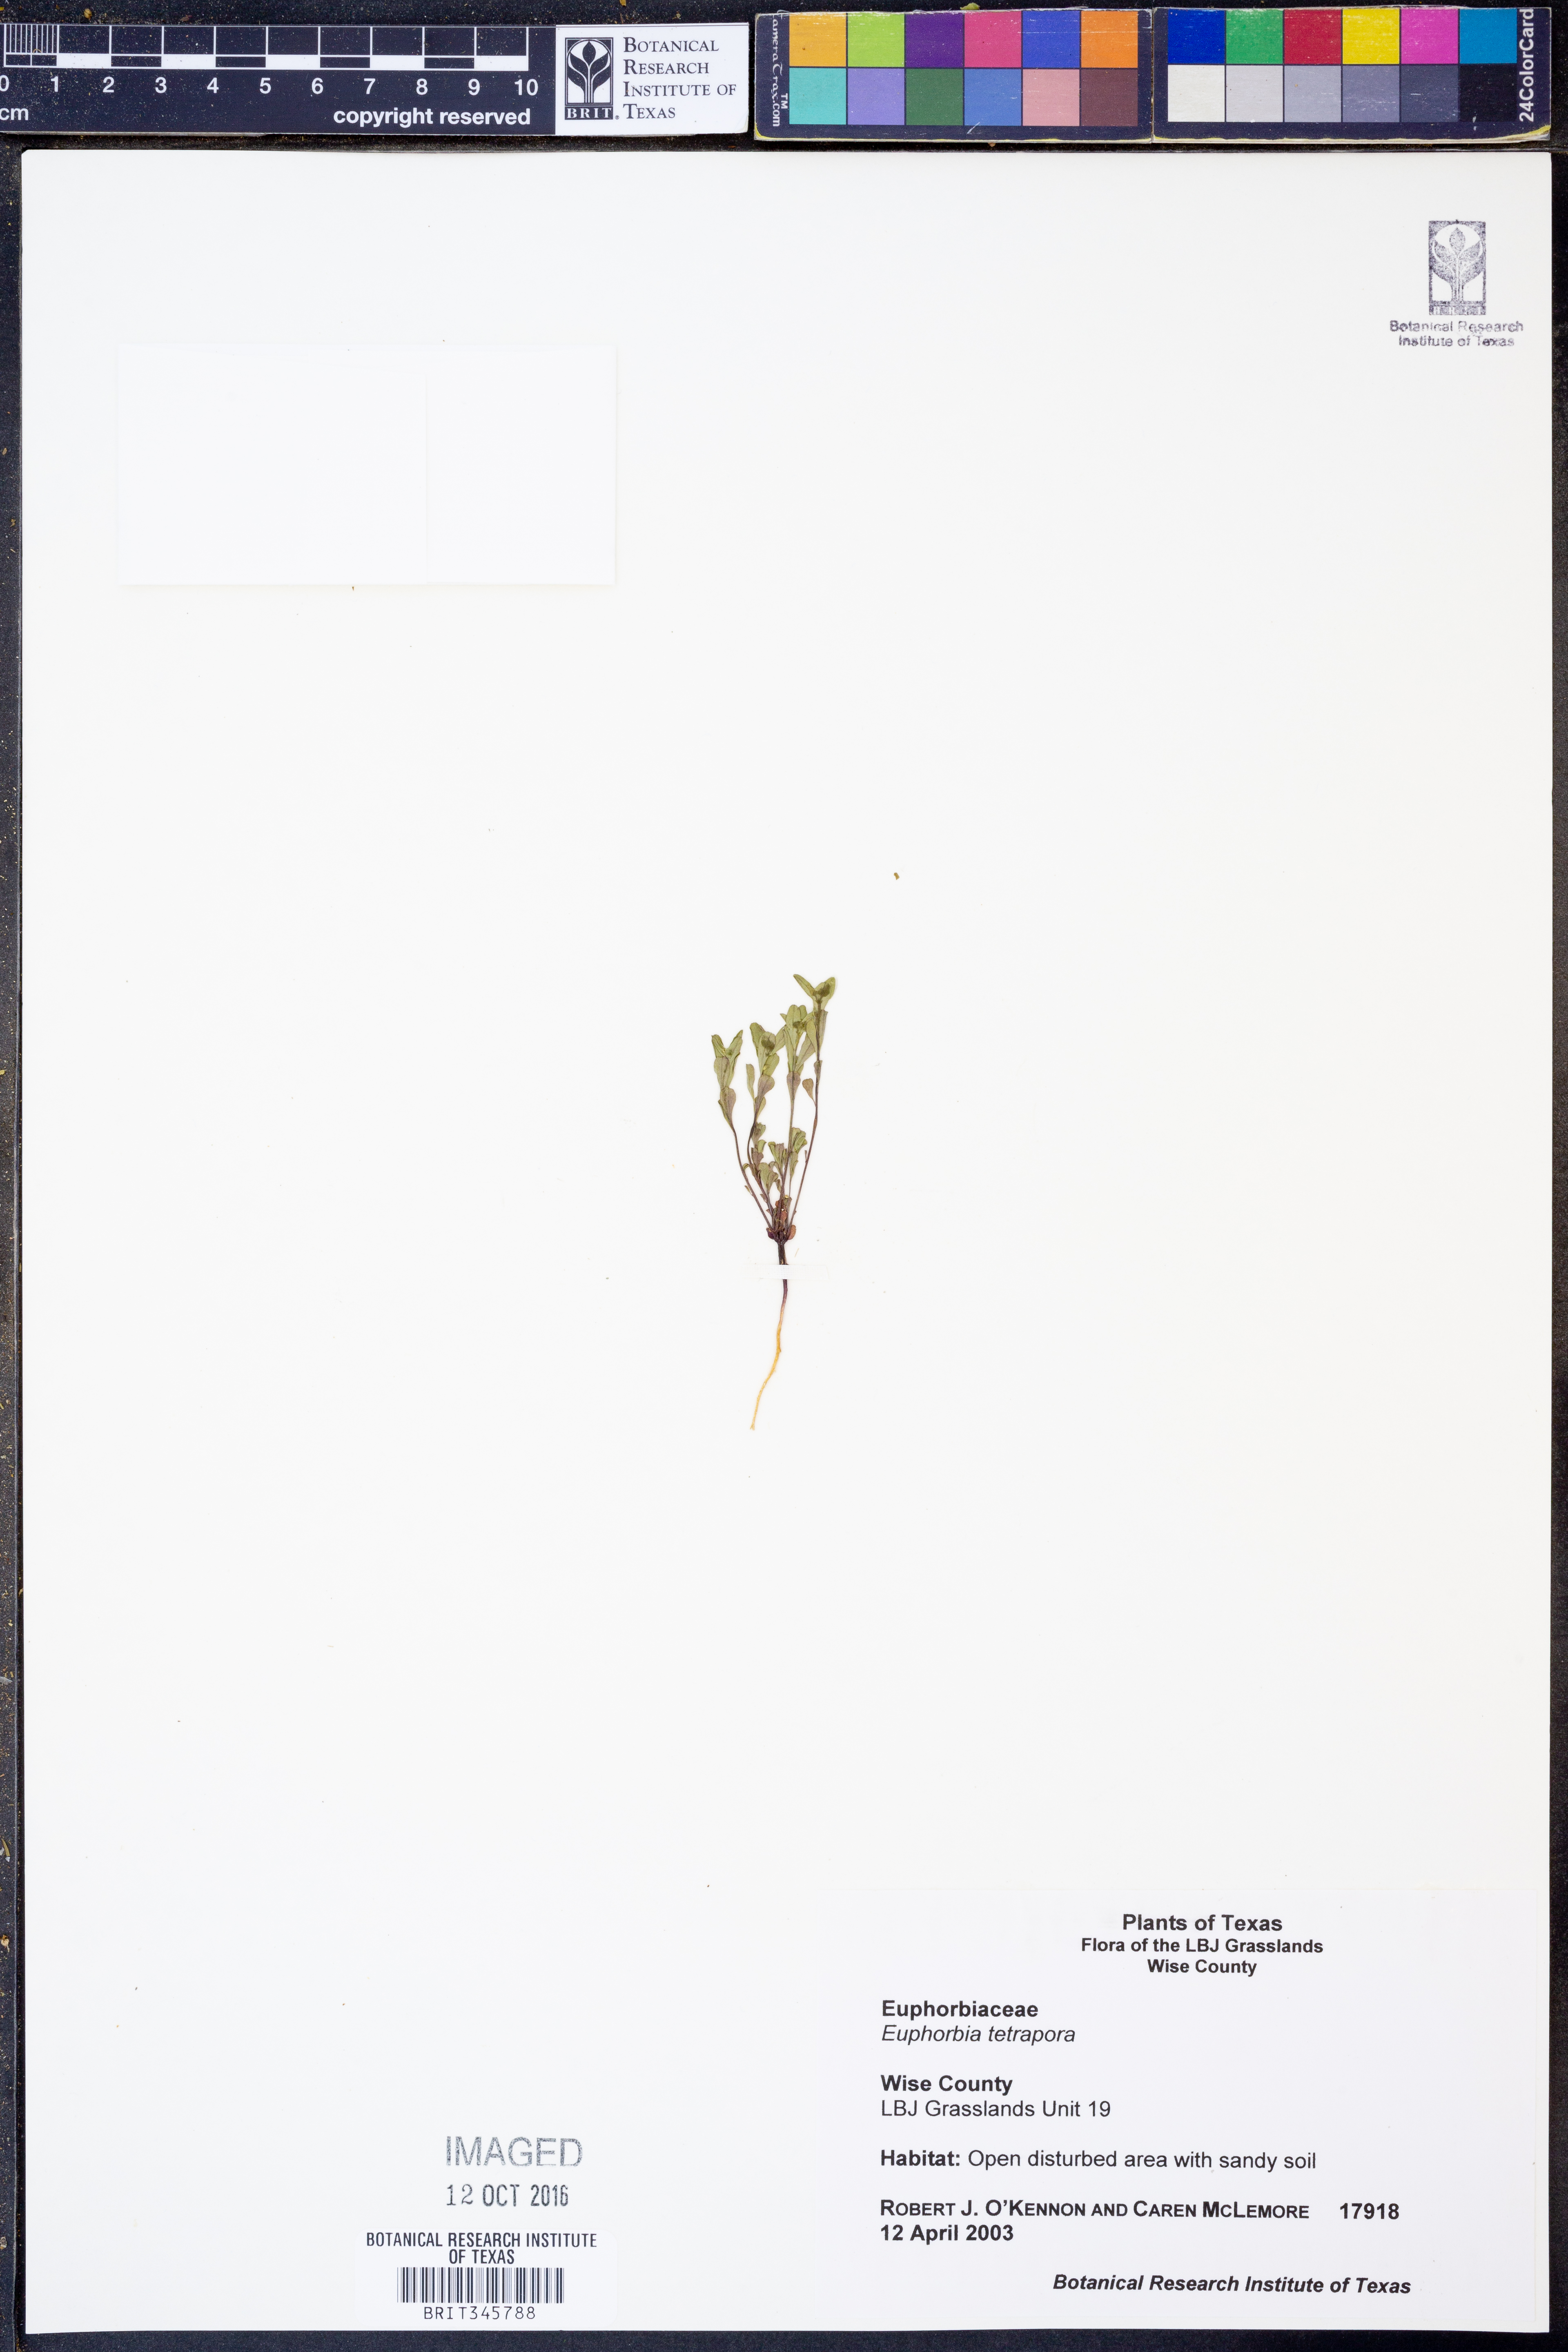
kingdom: Plantae
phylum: Tracheophyta
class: Magnoliopsida
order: Malpighiales
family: Euphorbiaceae
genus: Euphorbia
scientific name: Euphorbia tetrapora
